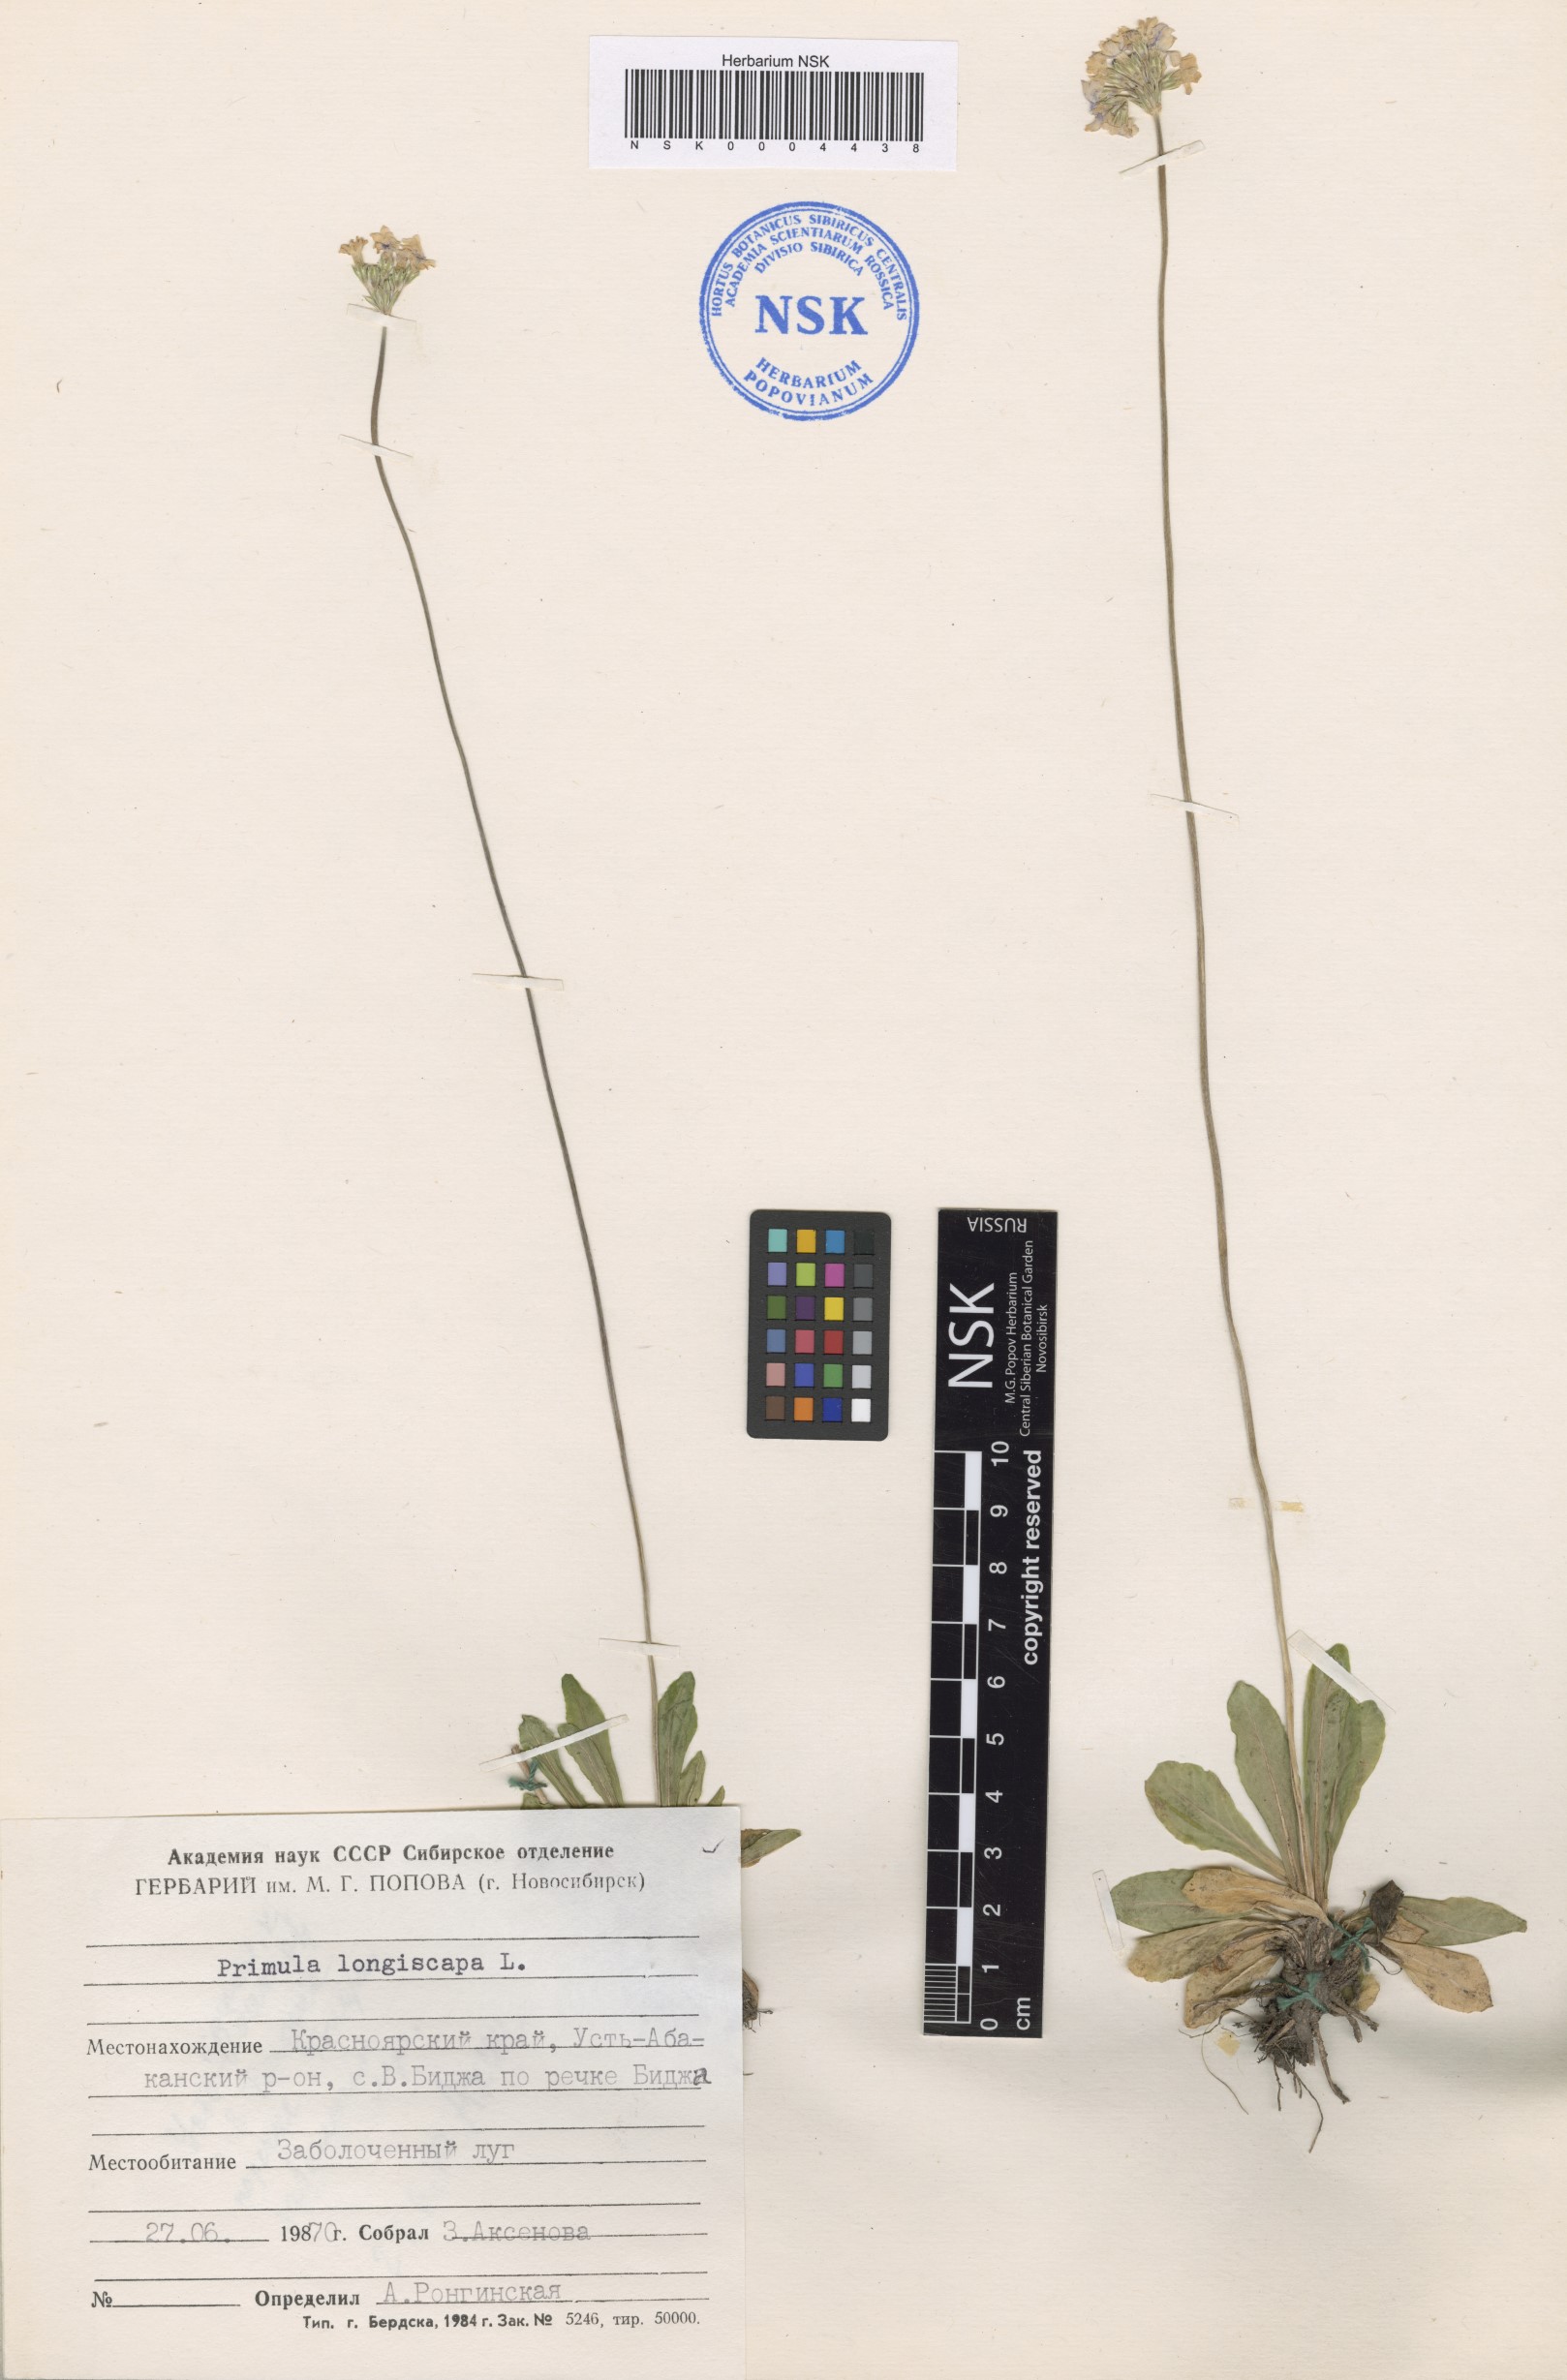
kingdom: Plantae
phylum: Tracheophyta
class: Magnoliopsida
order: Ericales
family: Primulaceae
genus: Primula
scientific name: Primula longiscapa
